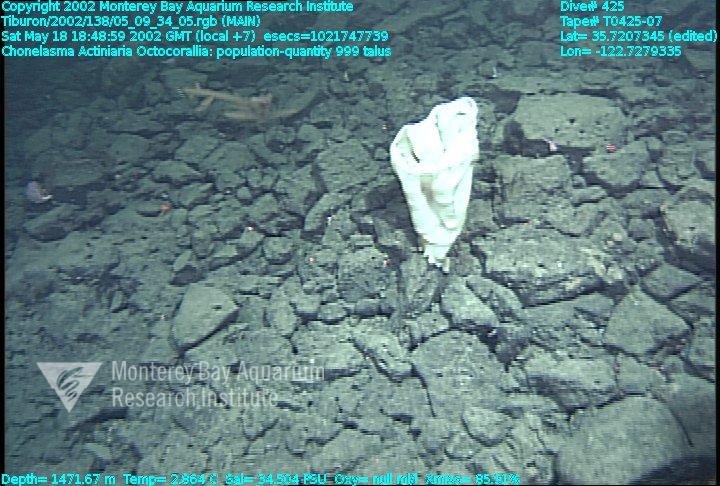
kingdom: Animalia
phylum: Porifera
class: Hexactinellida
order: Sceptrulophora
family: Euretidae
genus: Chonelasma
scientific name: Chonelasma
